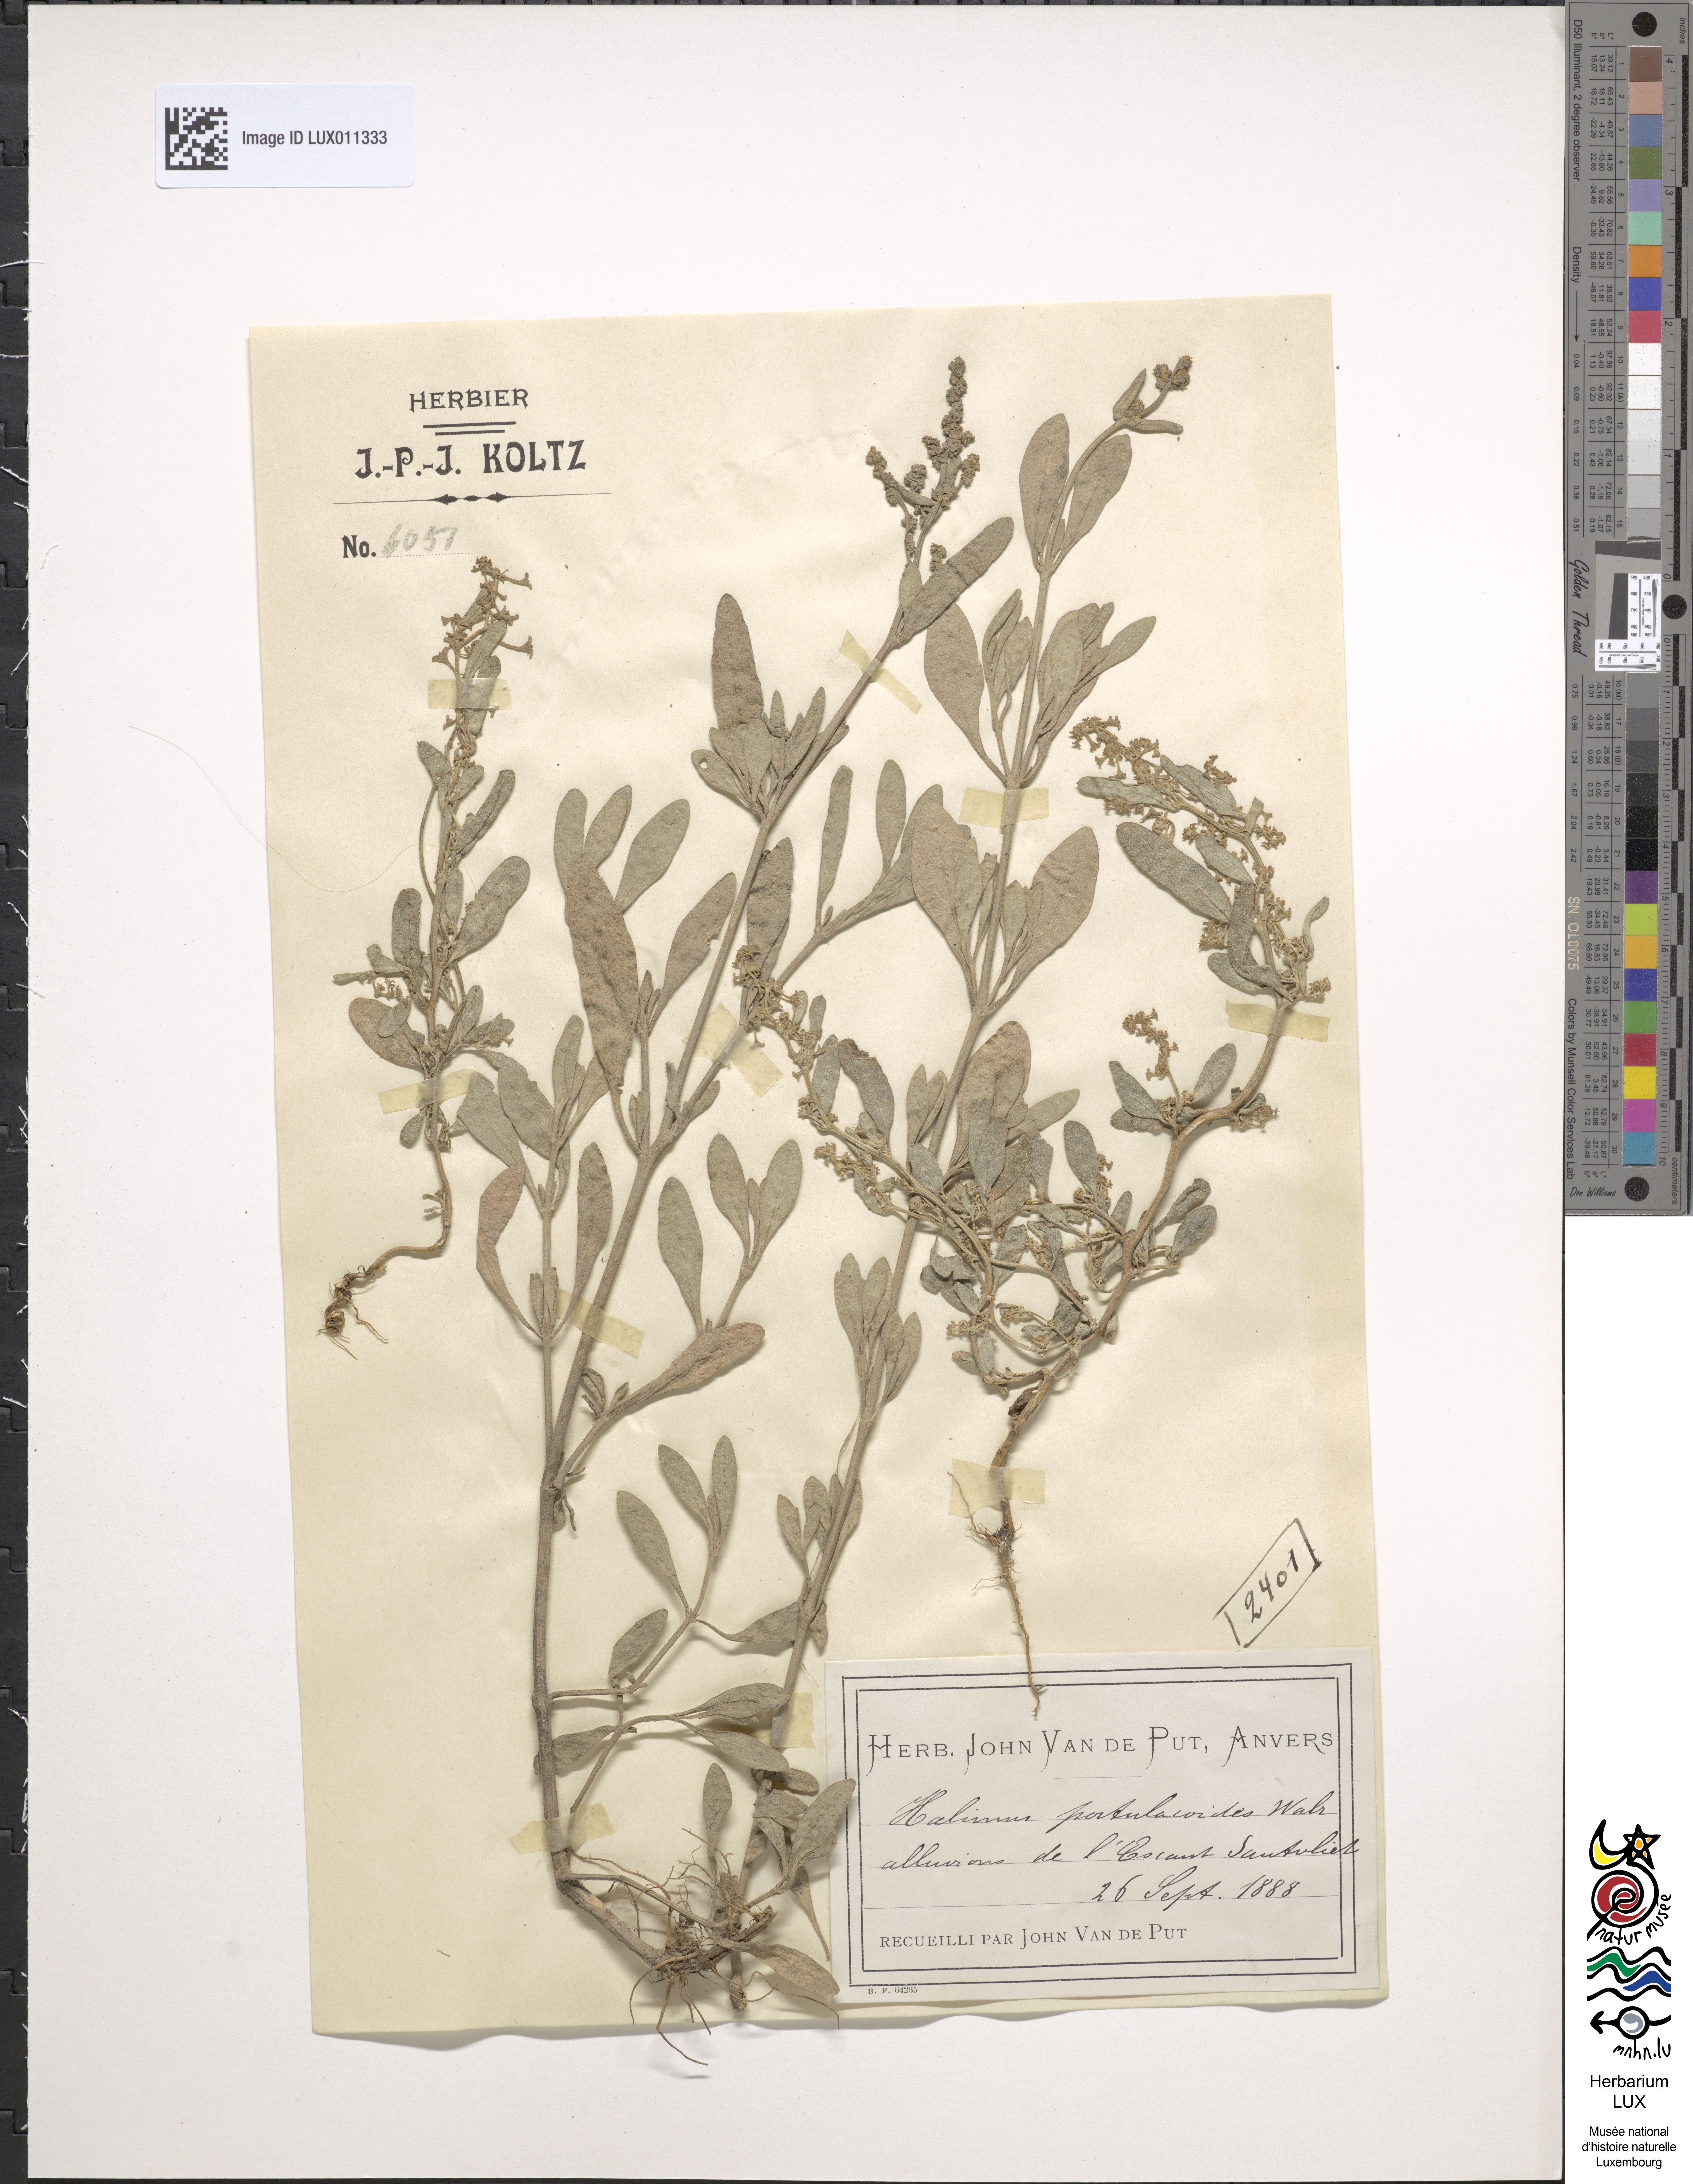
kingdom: Plantae
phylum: Tracheophyta
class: Magnoliopsida
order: Caryophyllales
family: Amaranthaceae
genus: Halimione
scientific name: Halimione portulacoides
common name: Sea-purslane
